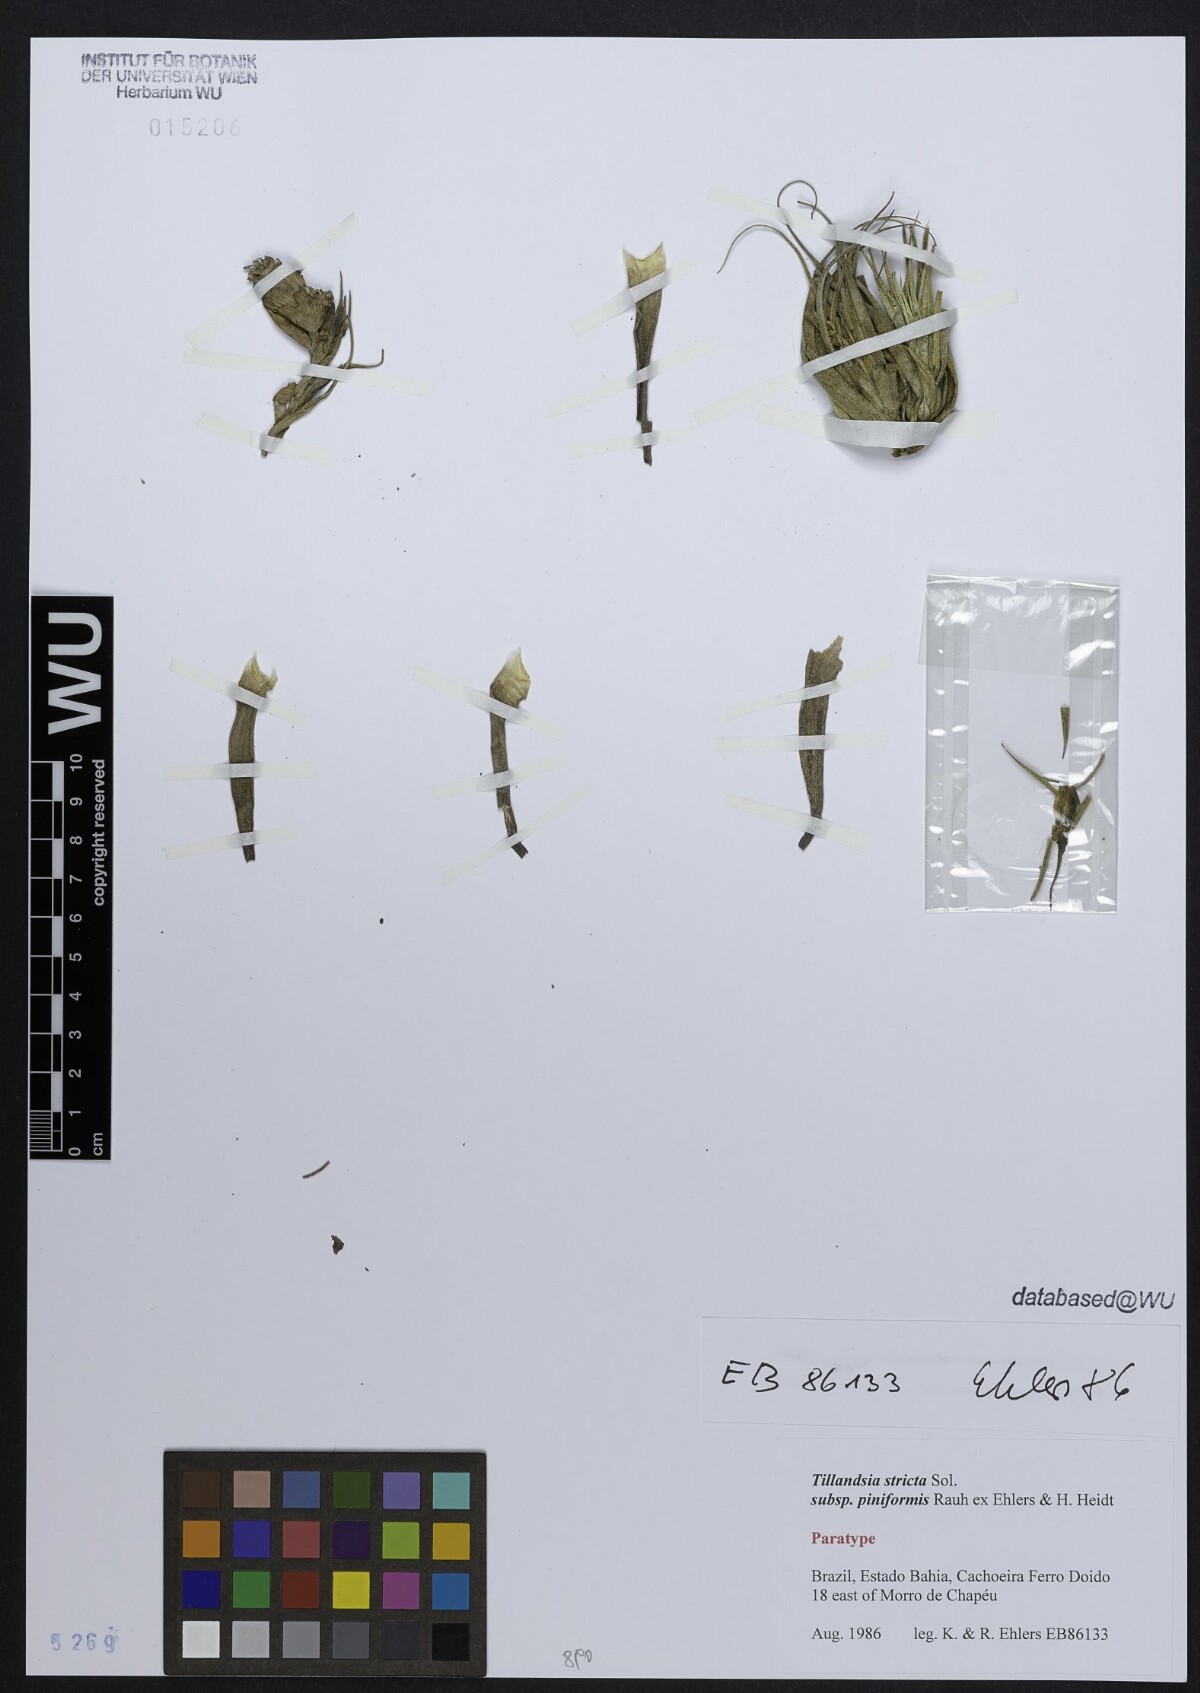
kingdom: Plantae
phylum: Tracheophyta
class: Liliopsida
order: Poales
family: Bromeliaceae
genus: Tillandsia
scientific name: Tillandsia stricta
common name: Airplant
